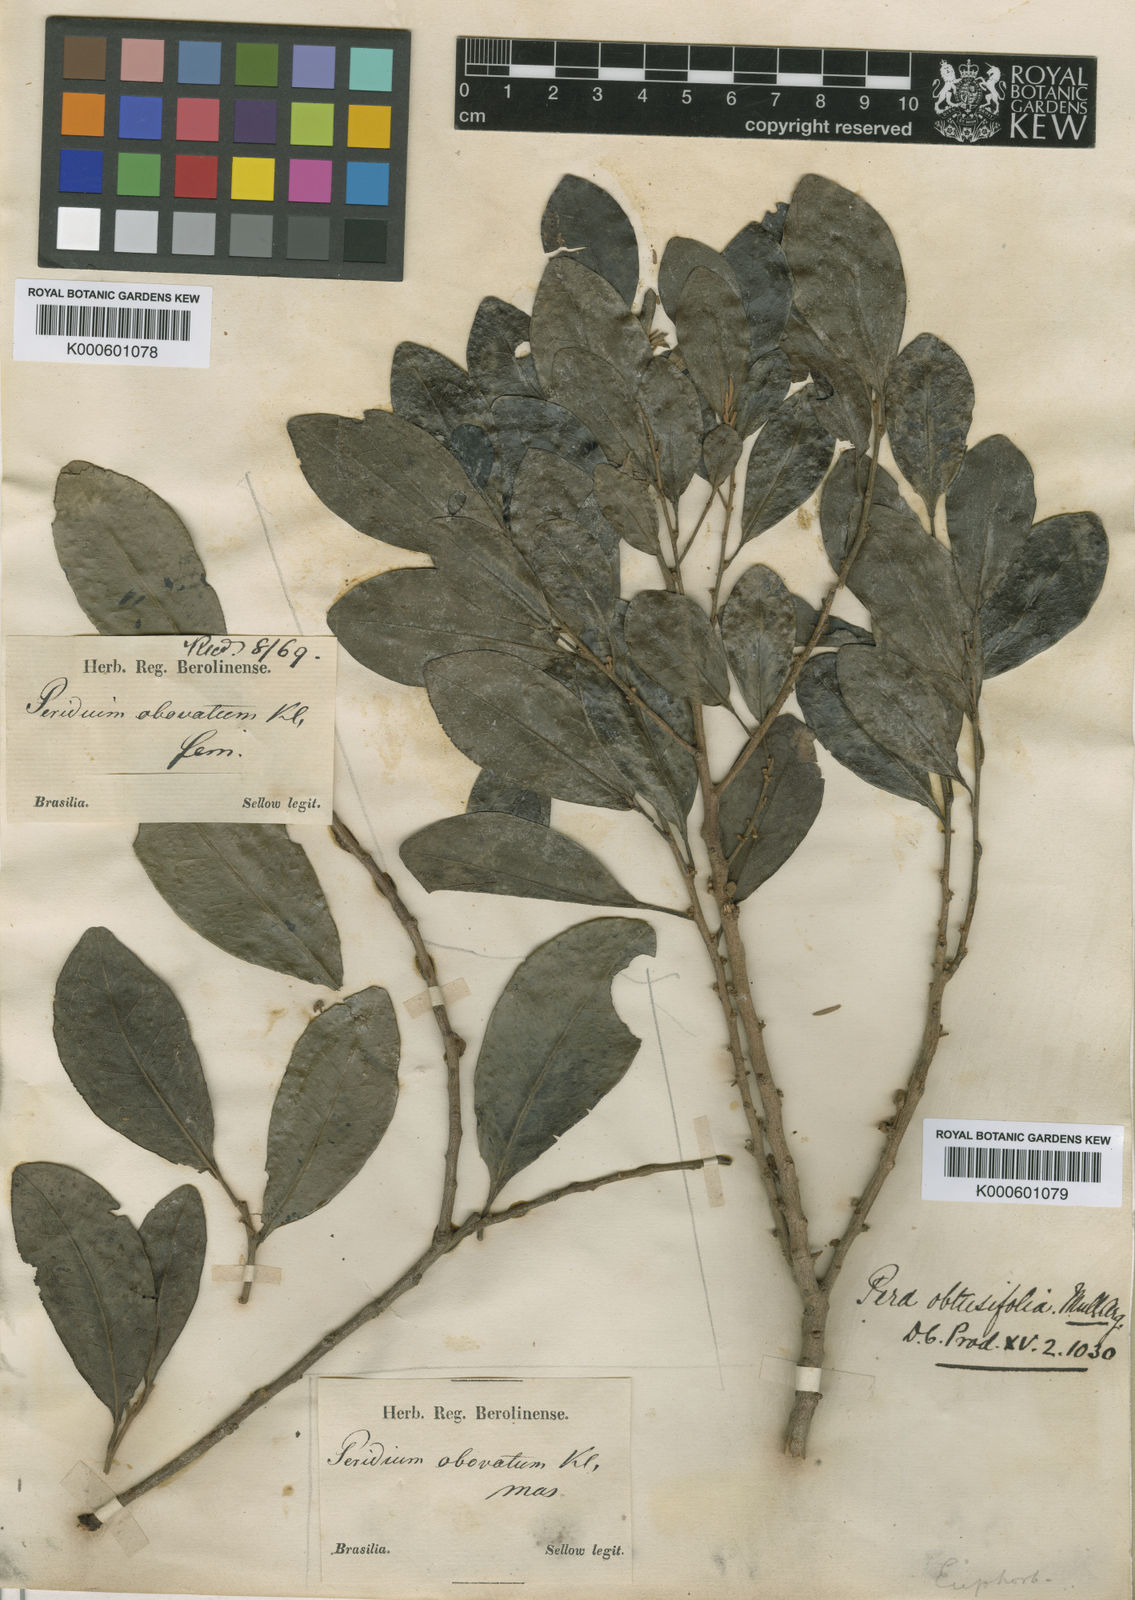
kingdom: Plantae
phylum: Tracheophyta
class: Magnoliopsida
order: Malpighiales
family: Peraceae
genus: Pera
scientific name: Pera glabrata
